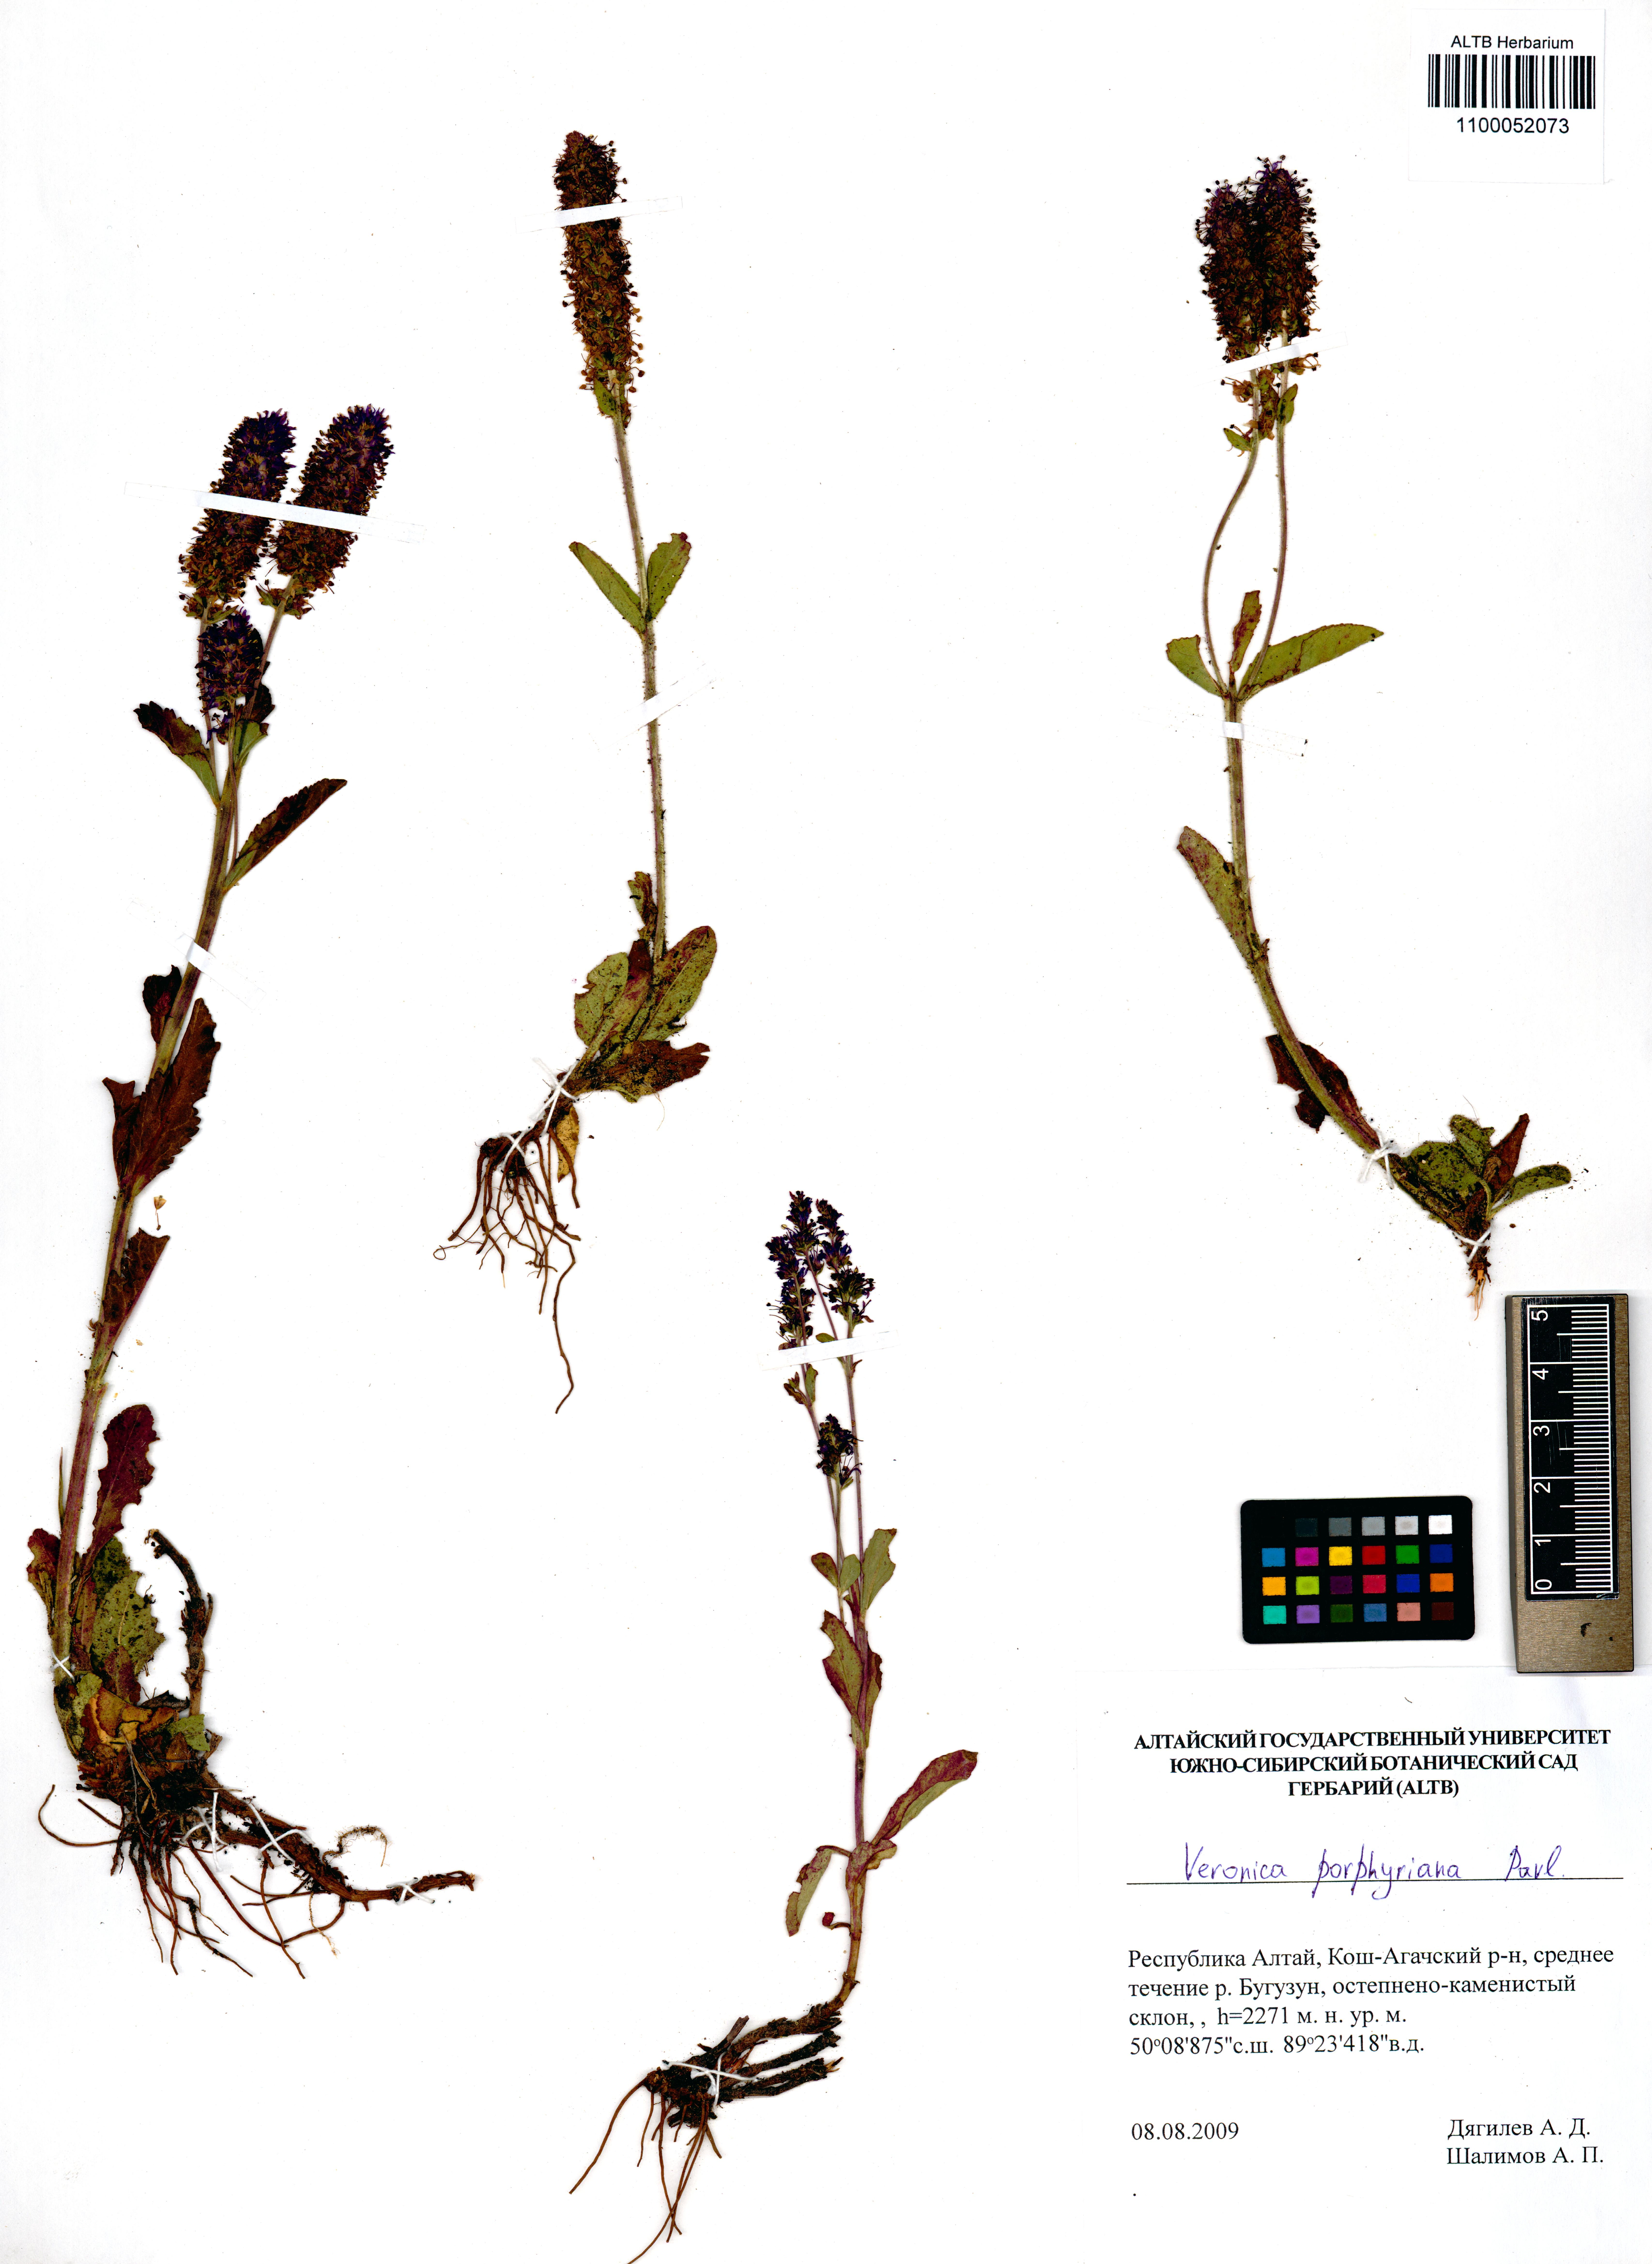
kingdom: Plantae
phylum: Tracheophyta
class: Magnoliopsida
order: Lamiales
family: Plantaginaceae
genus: Veronica
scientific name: Veronica porphyriana
